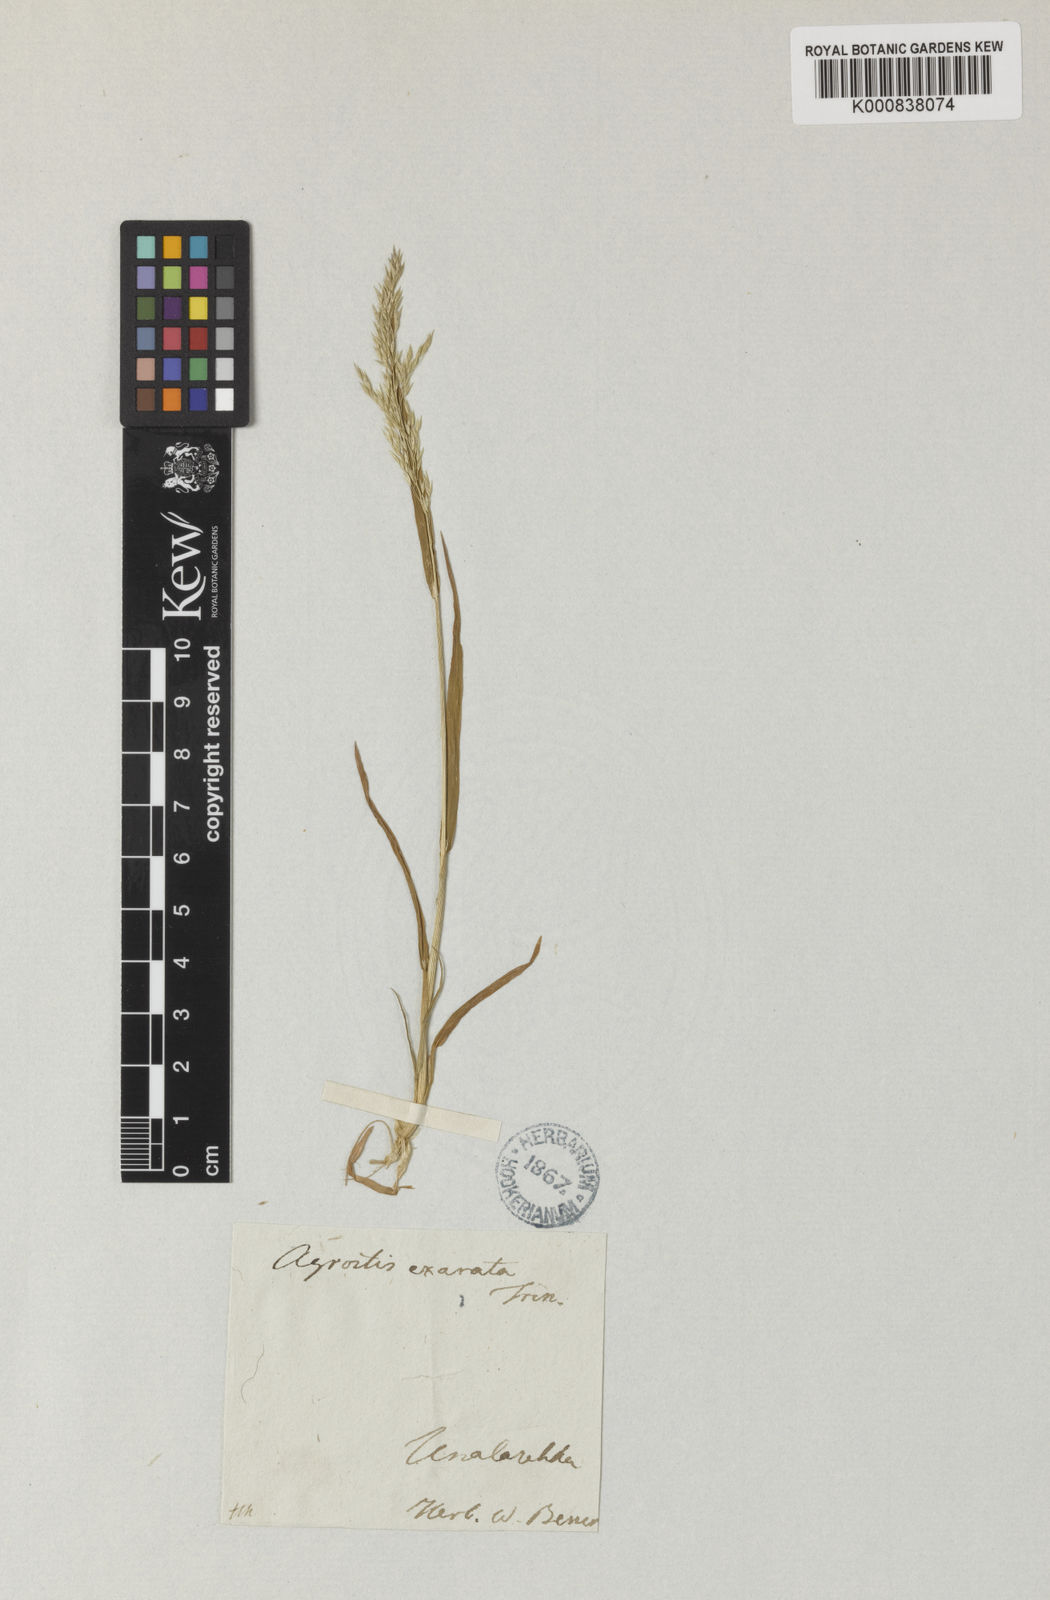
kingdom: Plantae
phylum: Tracheophyta
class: Liliopsida
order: Poales
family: Poaceae
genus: Agrostis
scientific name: Agrostis exarata
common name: Spike bent
